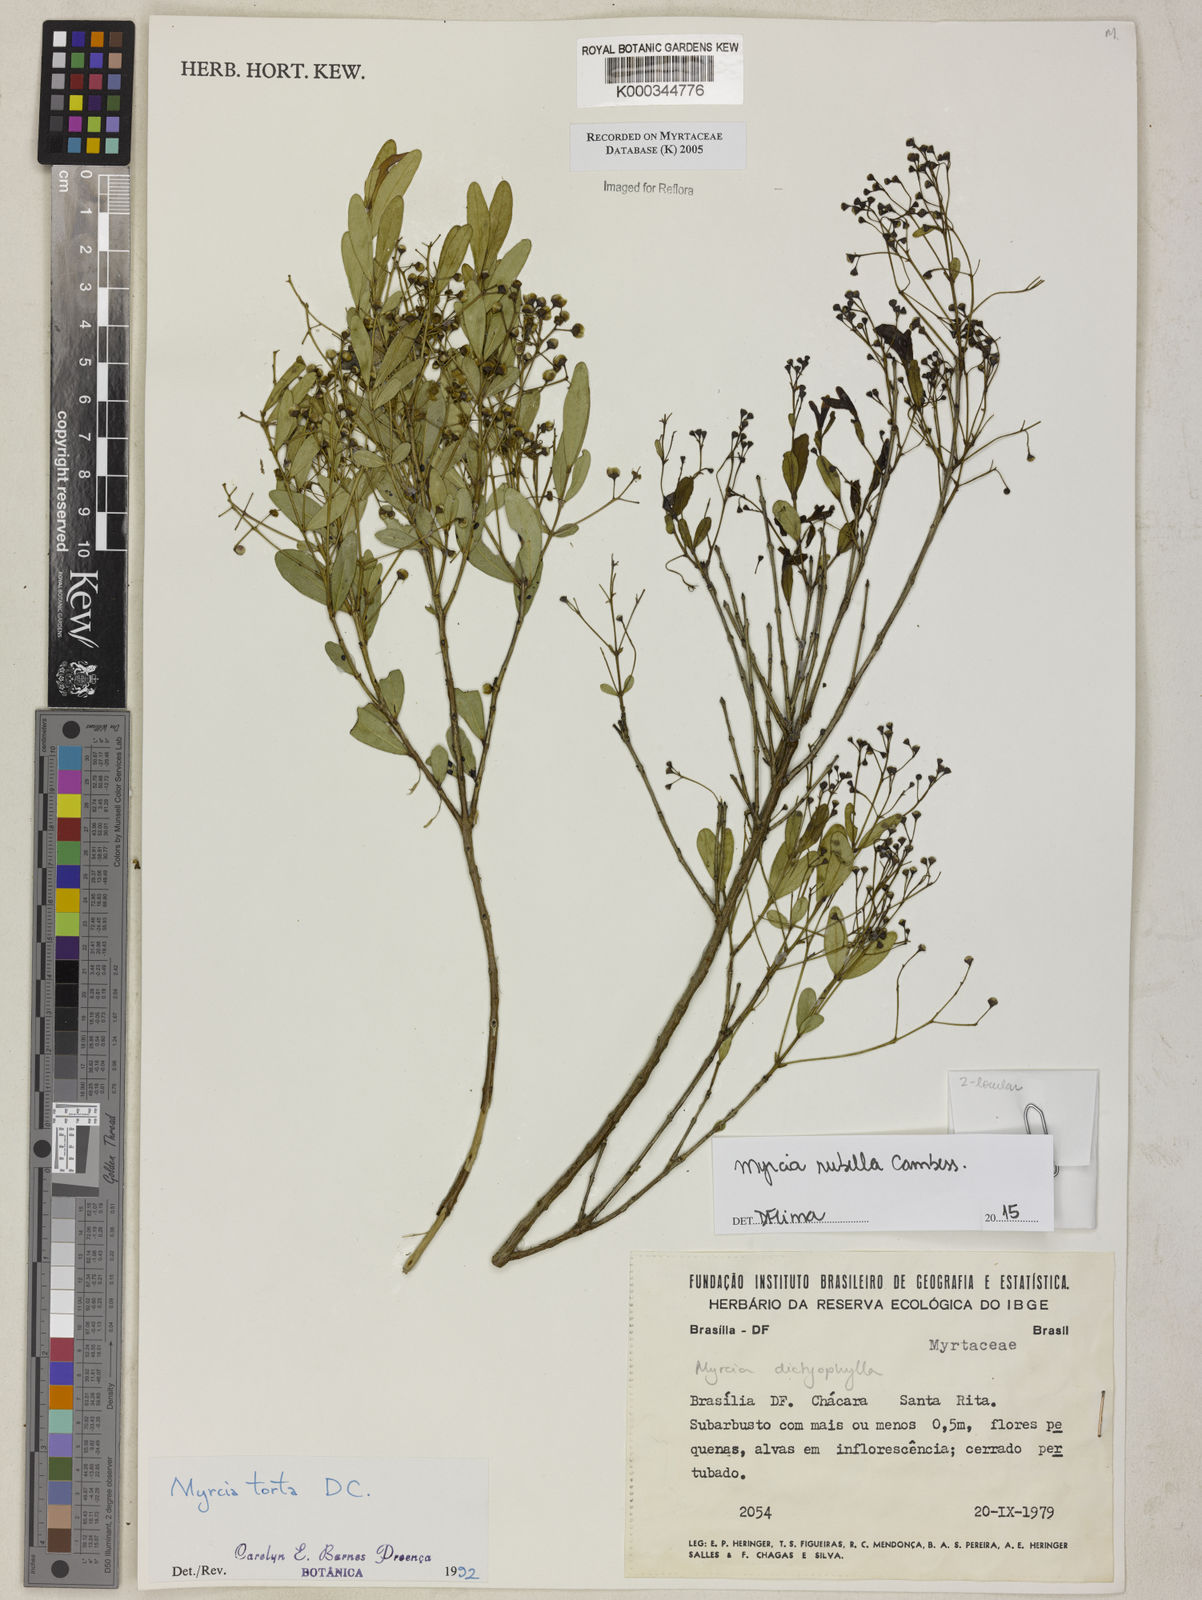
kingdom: Plantae
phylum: Tracheophyta
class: Magnoliopsida
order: Myrtales
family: Myrtaceae
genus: Myrcia
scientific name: Myrcia guianensis
